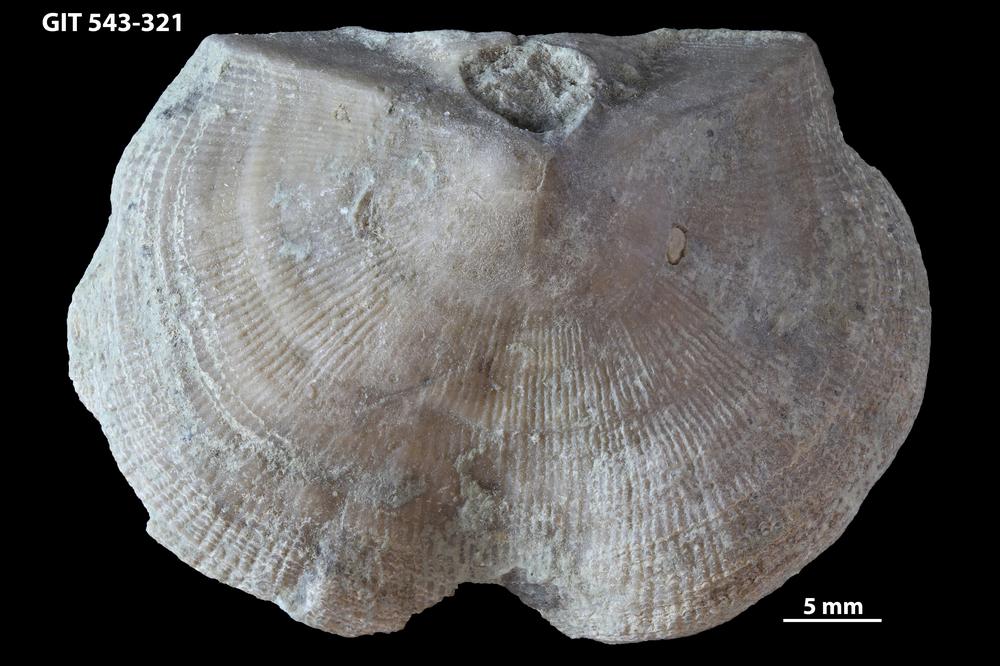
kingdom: Animalia
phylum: Brachiopoda
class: Rhynchonellata
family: Clitambonitidae
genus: Ilmarinia
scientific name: Ilmarinia dimorpha
